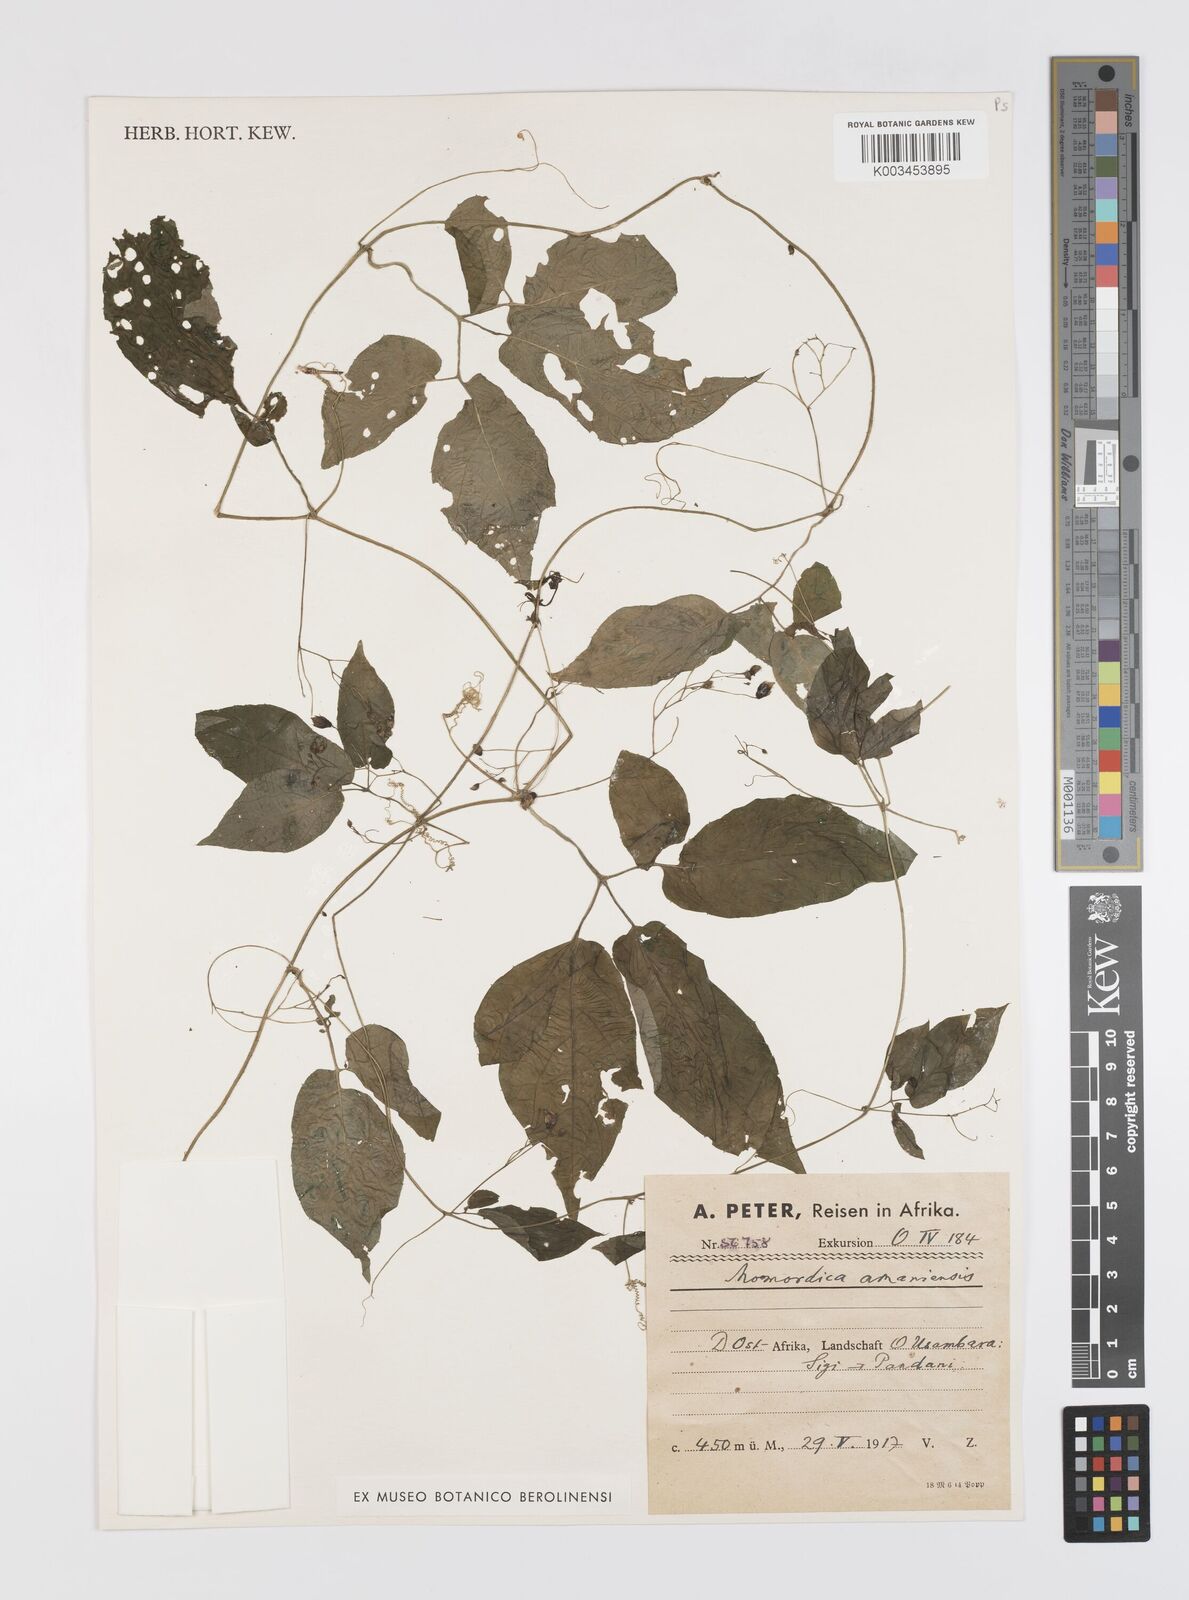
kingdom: Plantae
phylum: Tracheophyta
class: Magnoliopsida
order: Cucurbitales
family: Cucurbitaceae
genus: Momordica
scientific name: Momordica anigosantha
